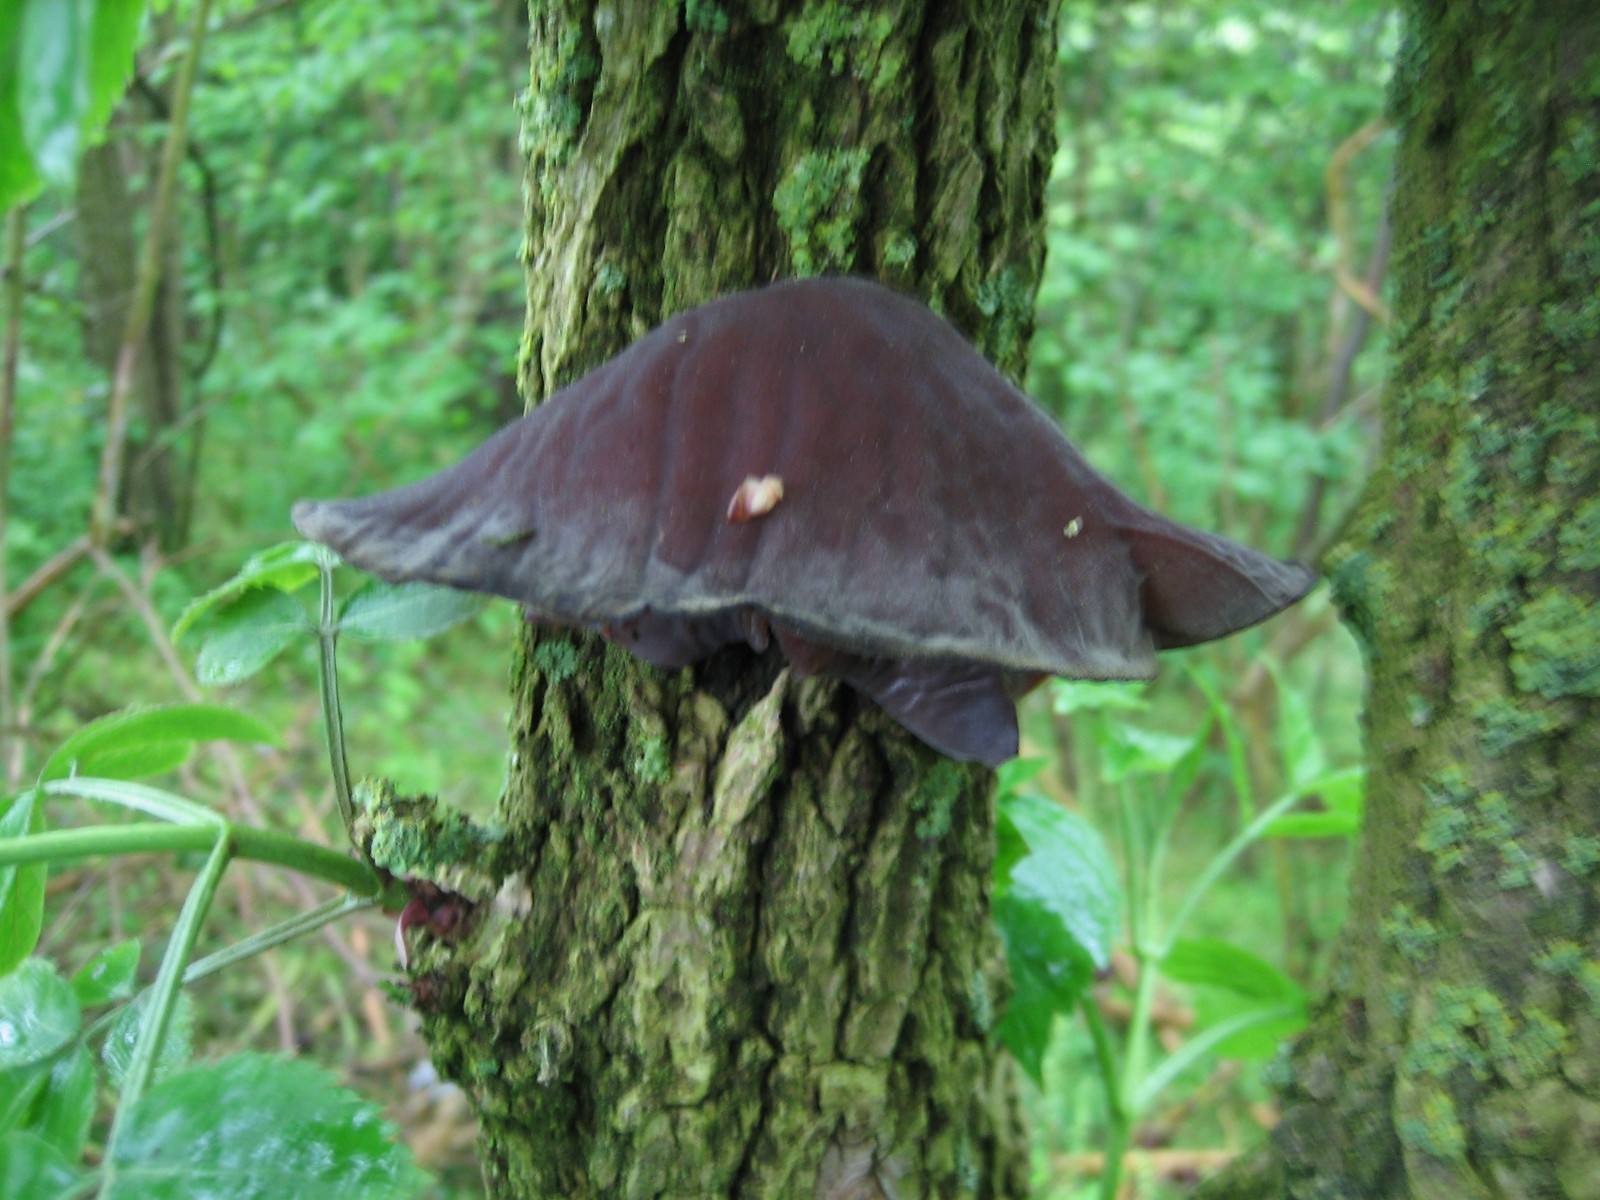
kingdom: Fungi
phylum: Basidiomycota
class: Agaricomycetes
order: Auriculariales
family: Auriculariaceae
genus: Auricularia
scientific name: Auricularia auricula-judae
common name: almindelig judasøre
